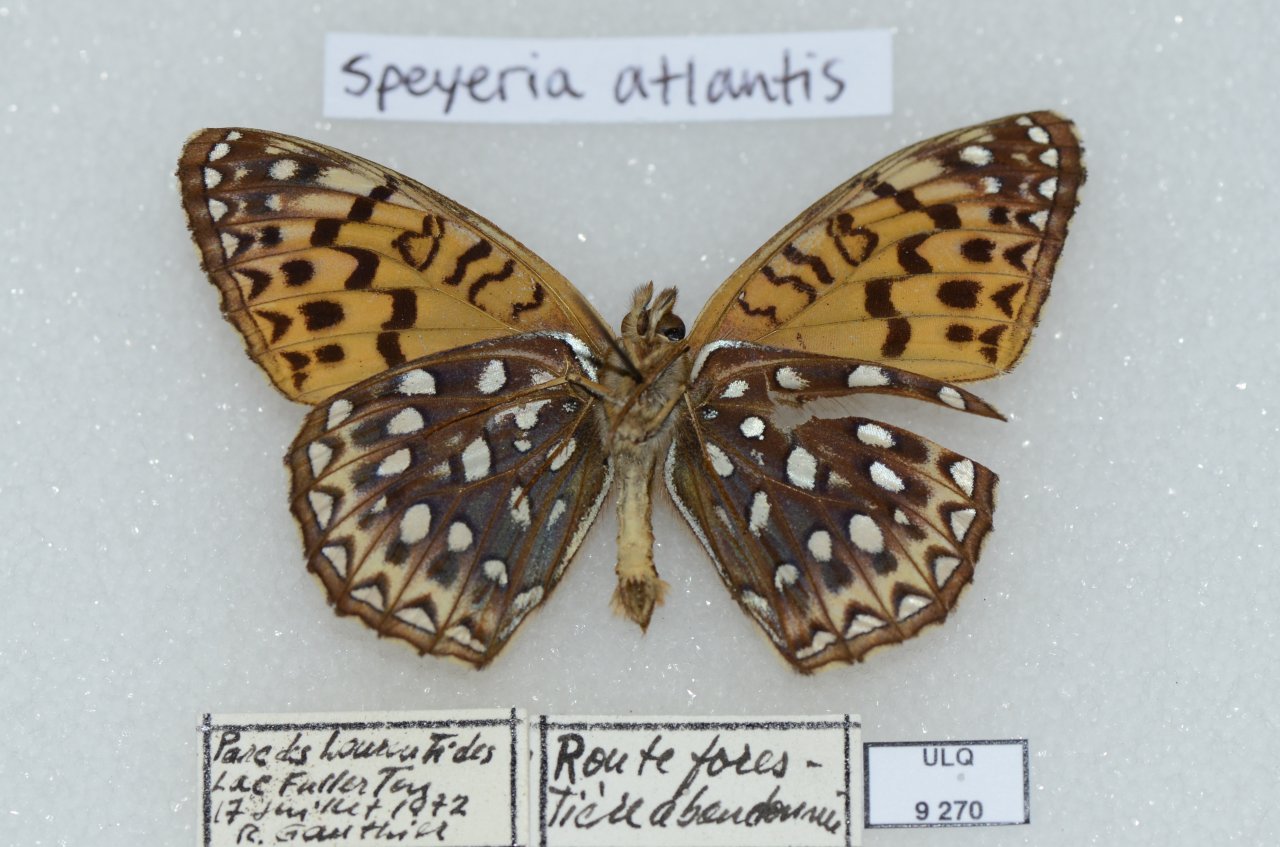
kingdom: Animalia
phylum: Arthropoda
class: Insecta
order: Lepidoptera
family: Nymphalidae
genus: Speyeria
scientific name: Speyeria atlantis
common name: Atlantis Fritillary
